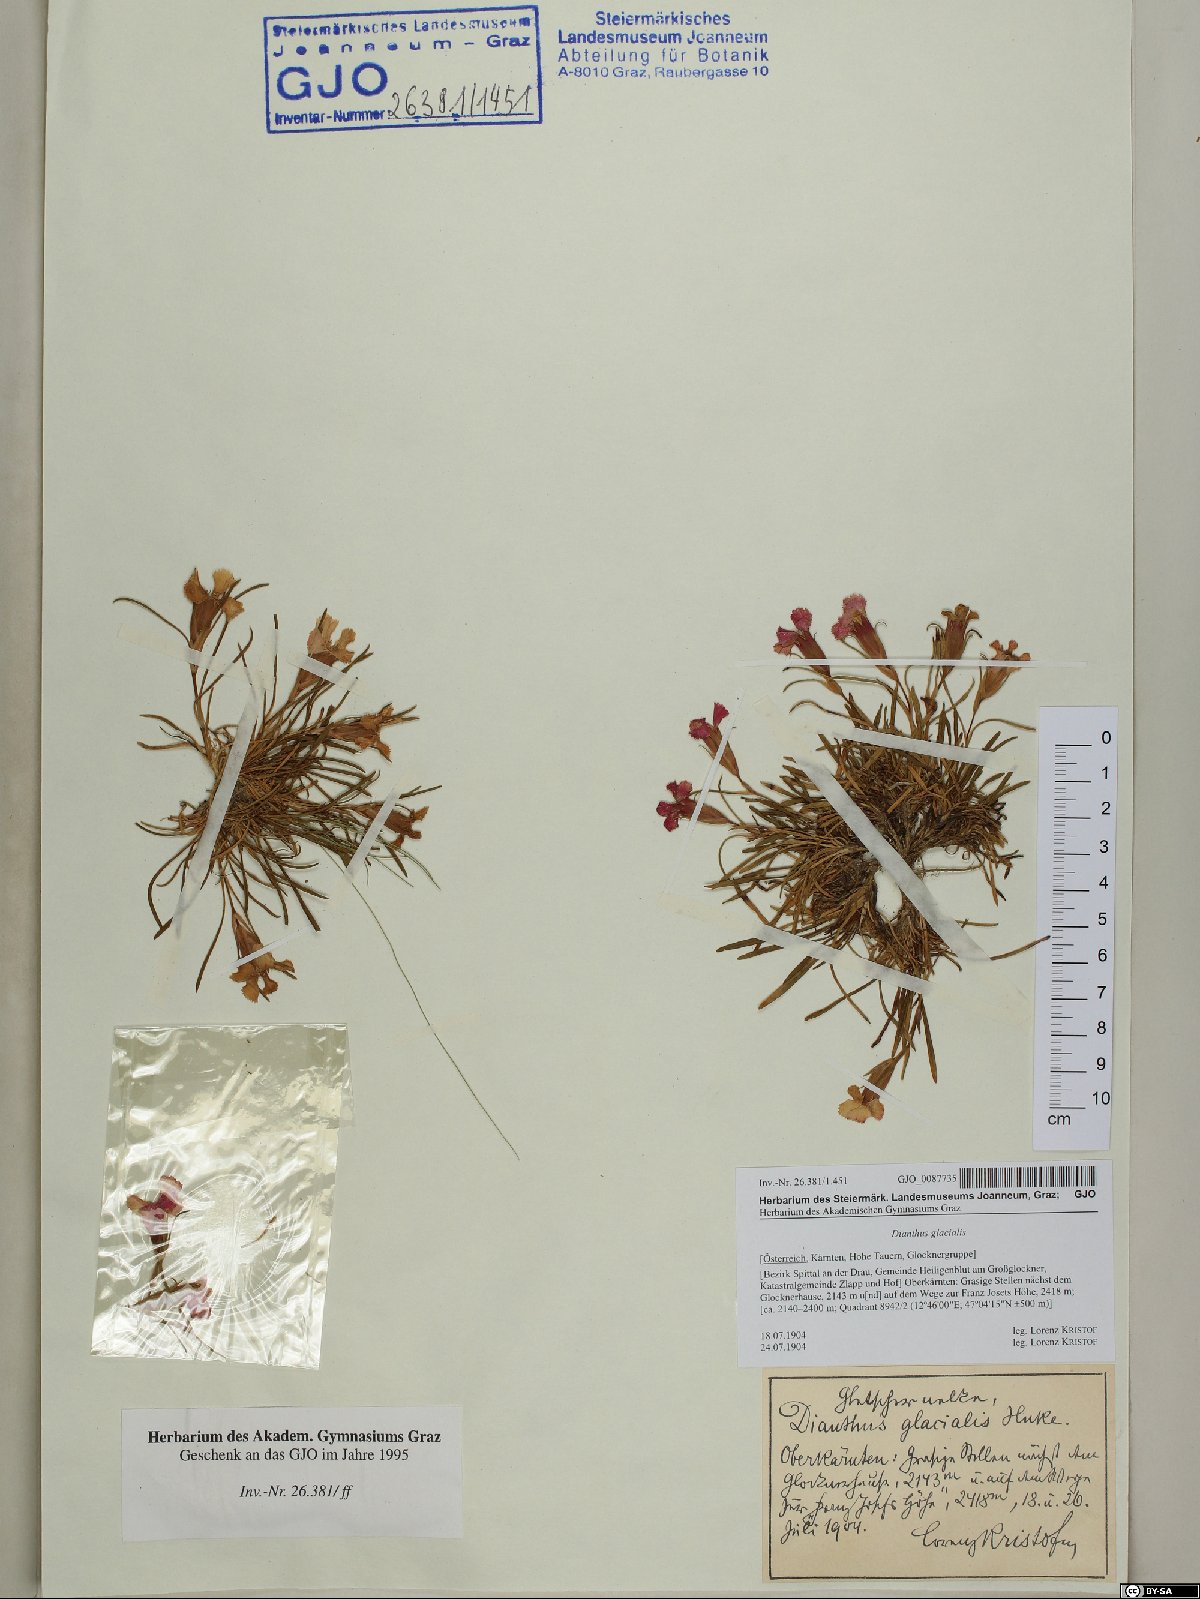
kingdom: Plantae
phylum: Tracheophyta
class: Magnoliopsida
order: Caryophyllales
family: Caryophyllaceae
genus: Dianthus
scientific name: Dianthus glacialis
